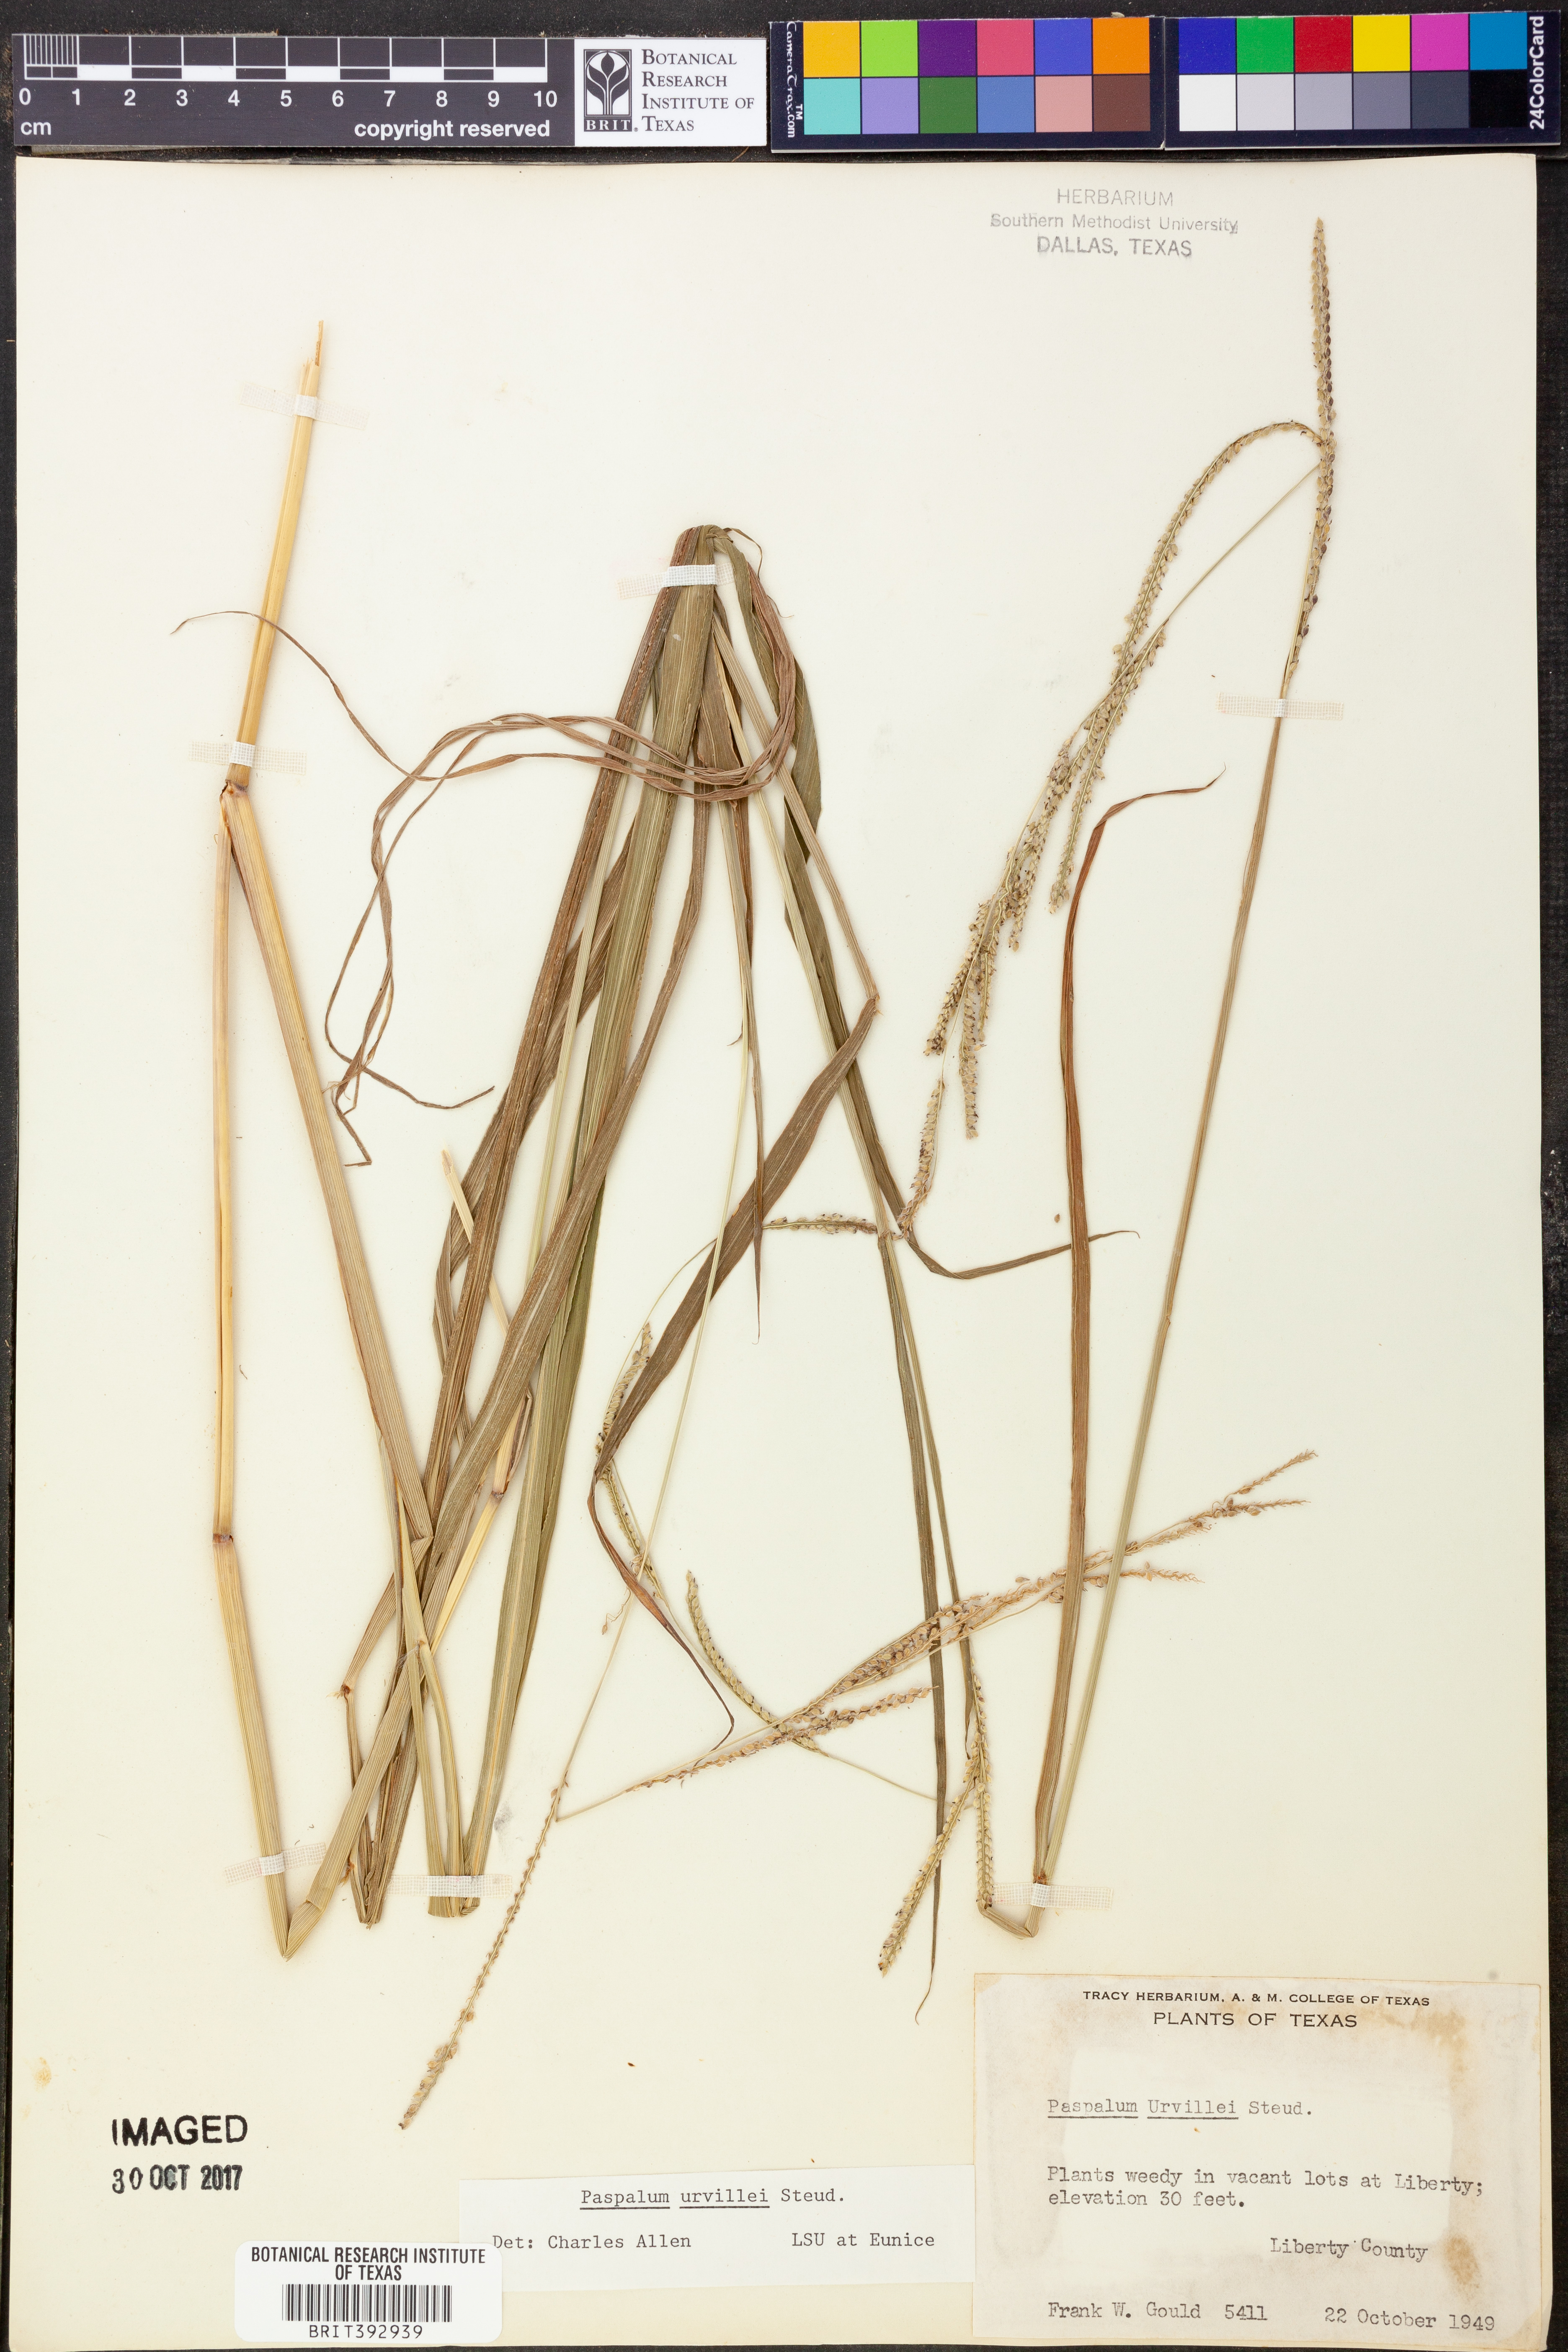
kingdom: Plantae
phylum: Tracheophyta
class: Liliopsida
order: Poales
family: Poaceae
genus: Paspalum
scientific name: Paspalum urvillei
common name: Vasey's grass
